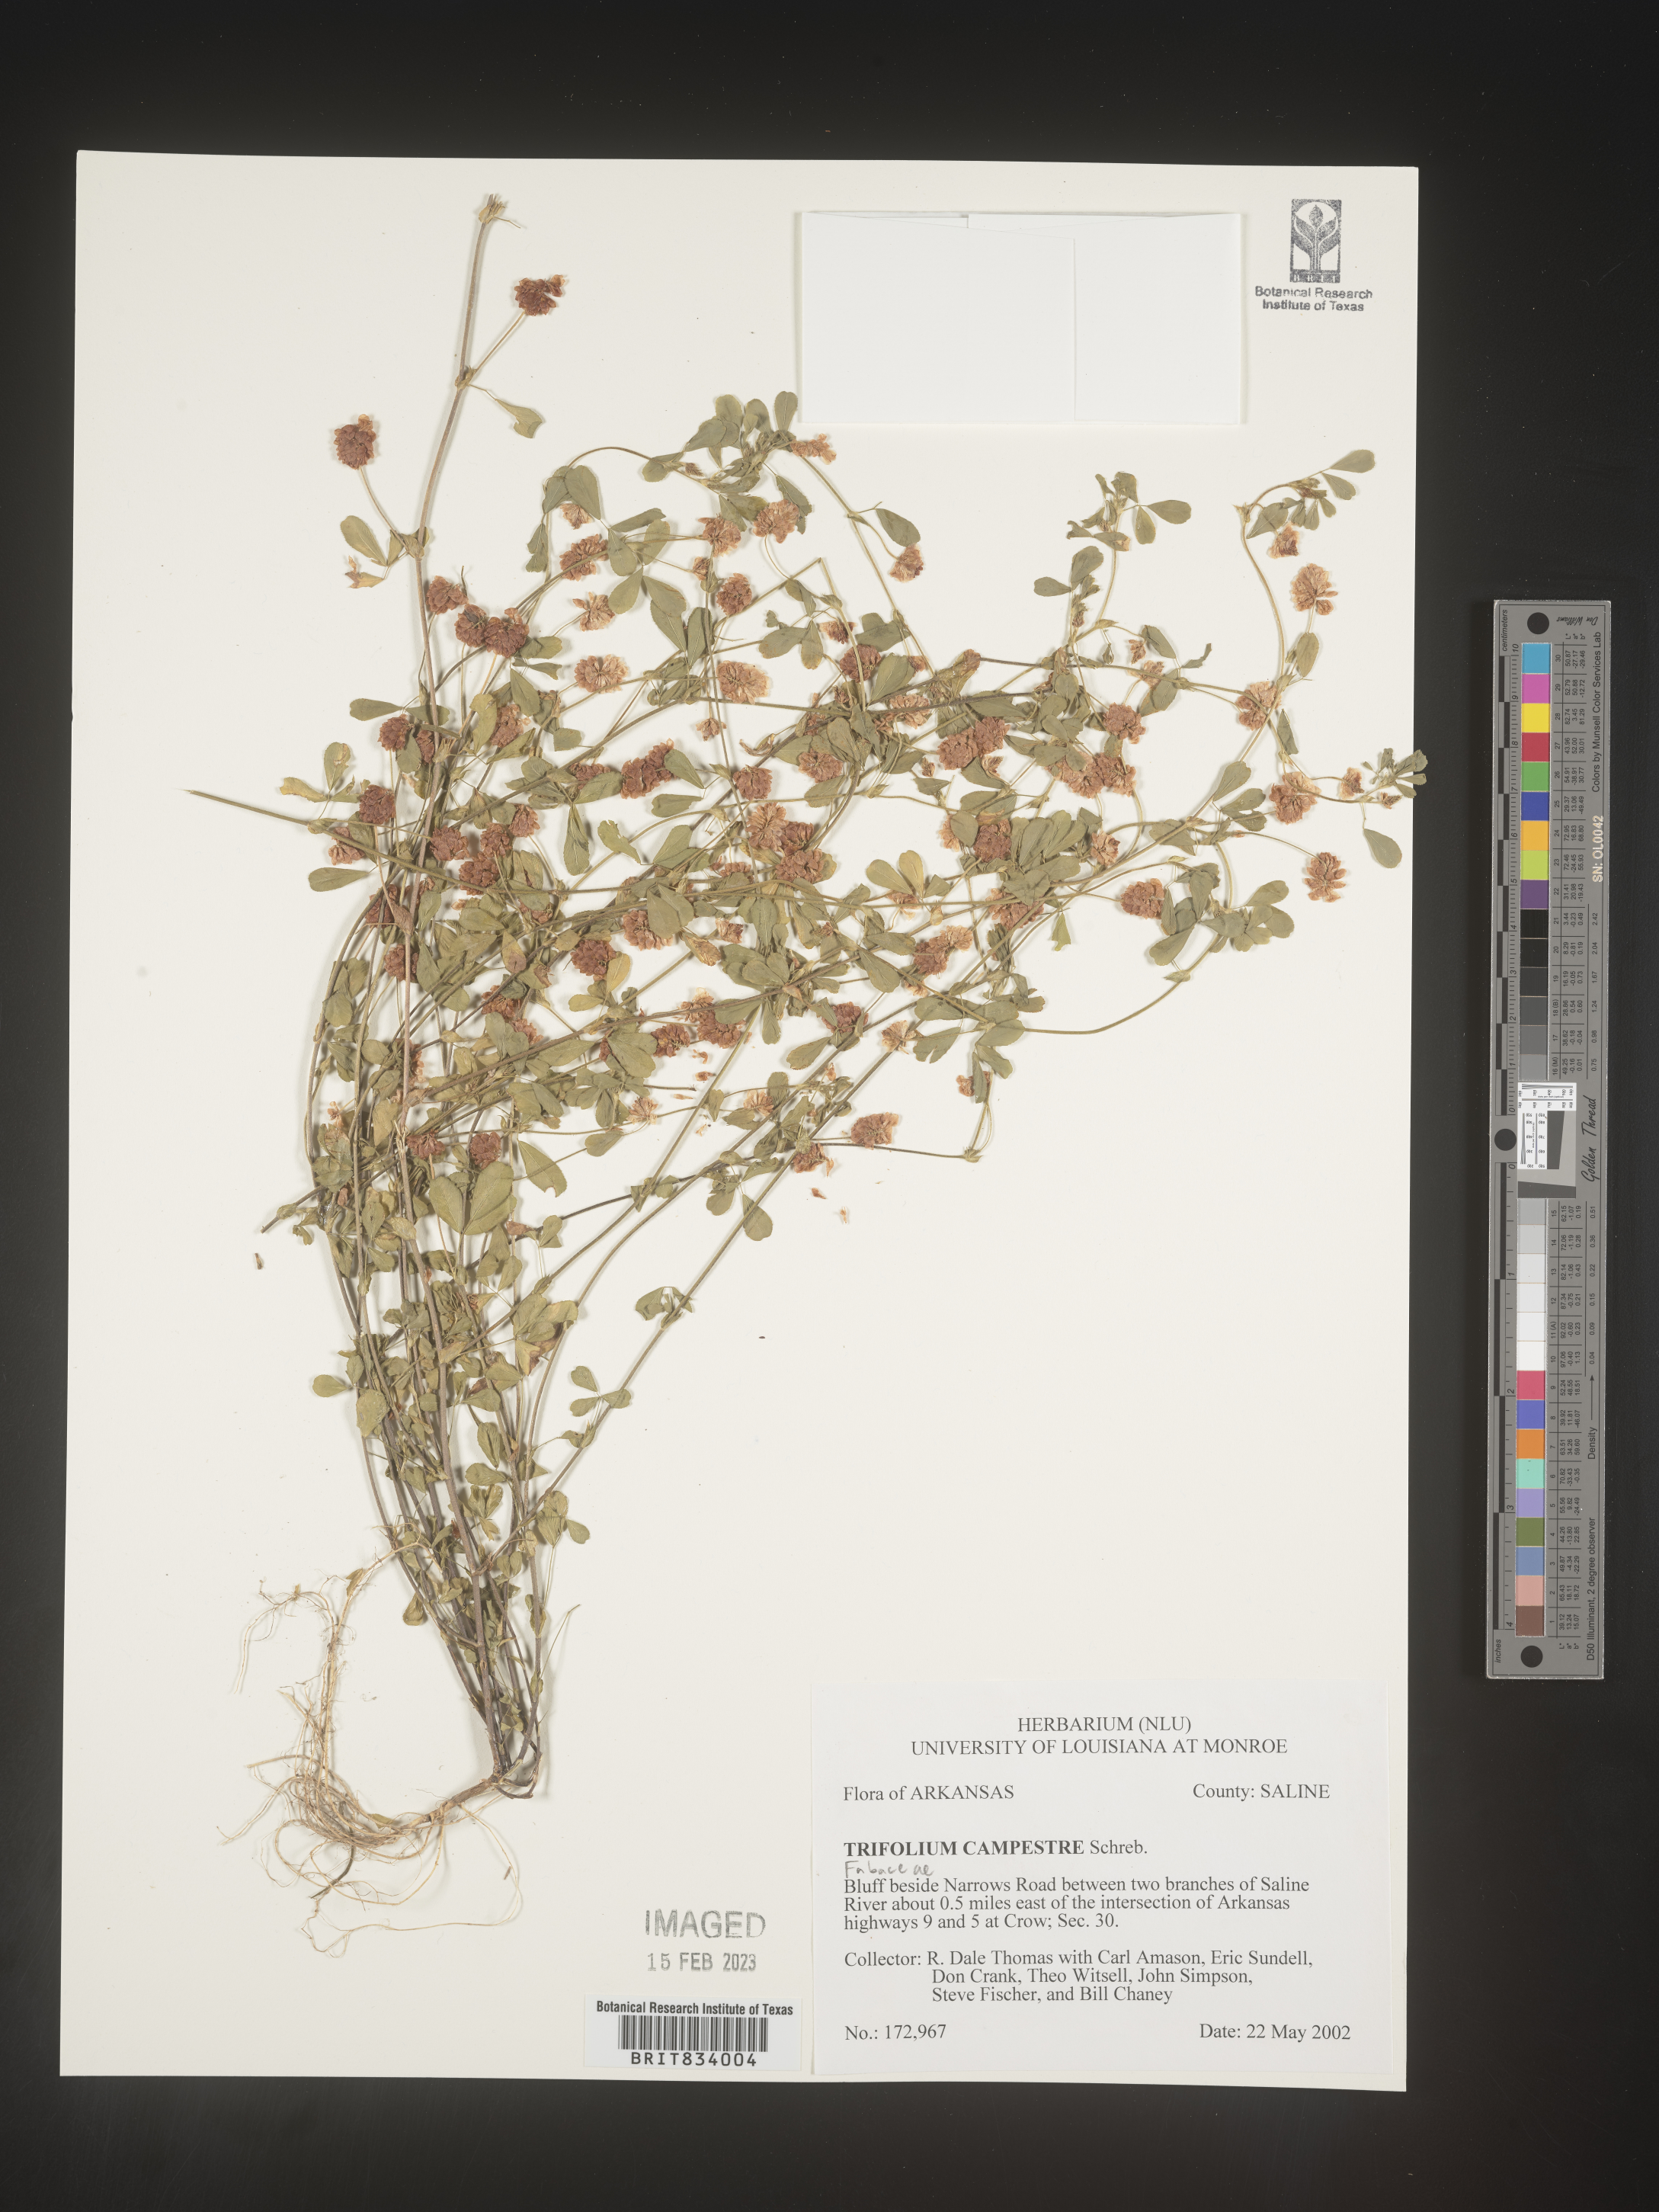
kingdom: Plantae
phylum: Tracheophyta
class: Magnoliopsida
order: Fabales
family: Fabaceae
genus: Trifolium
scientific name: Trifolium campestre
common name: Field clover
